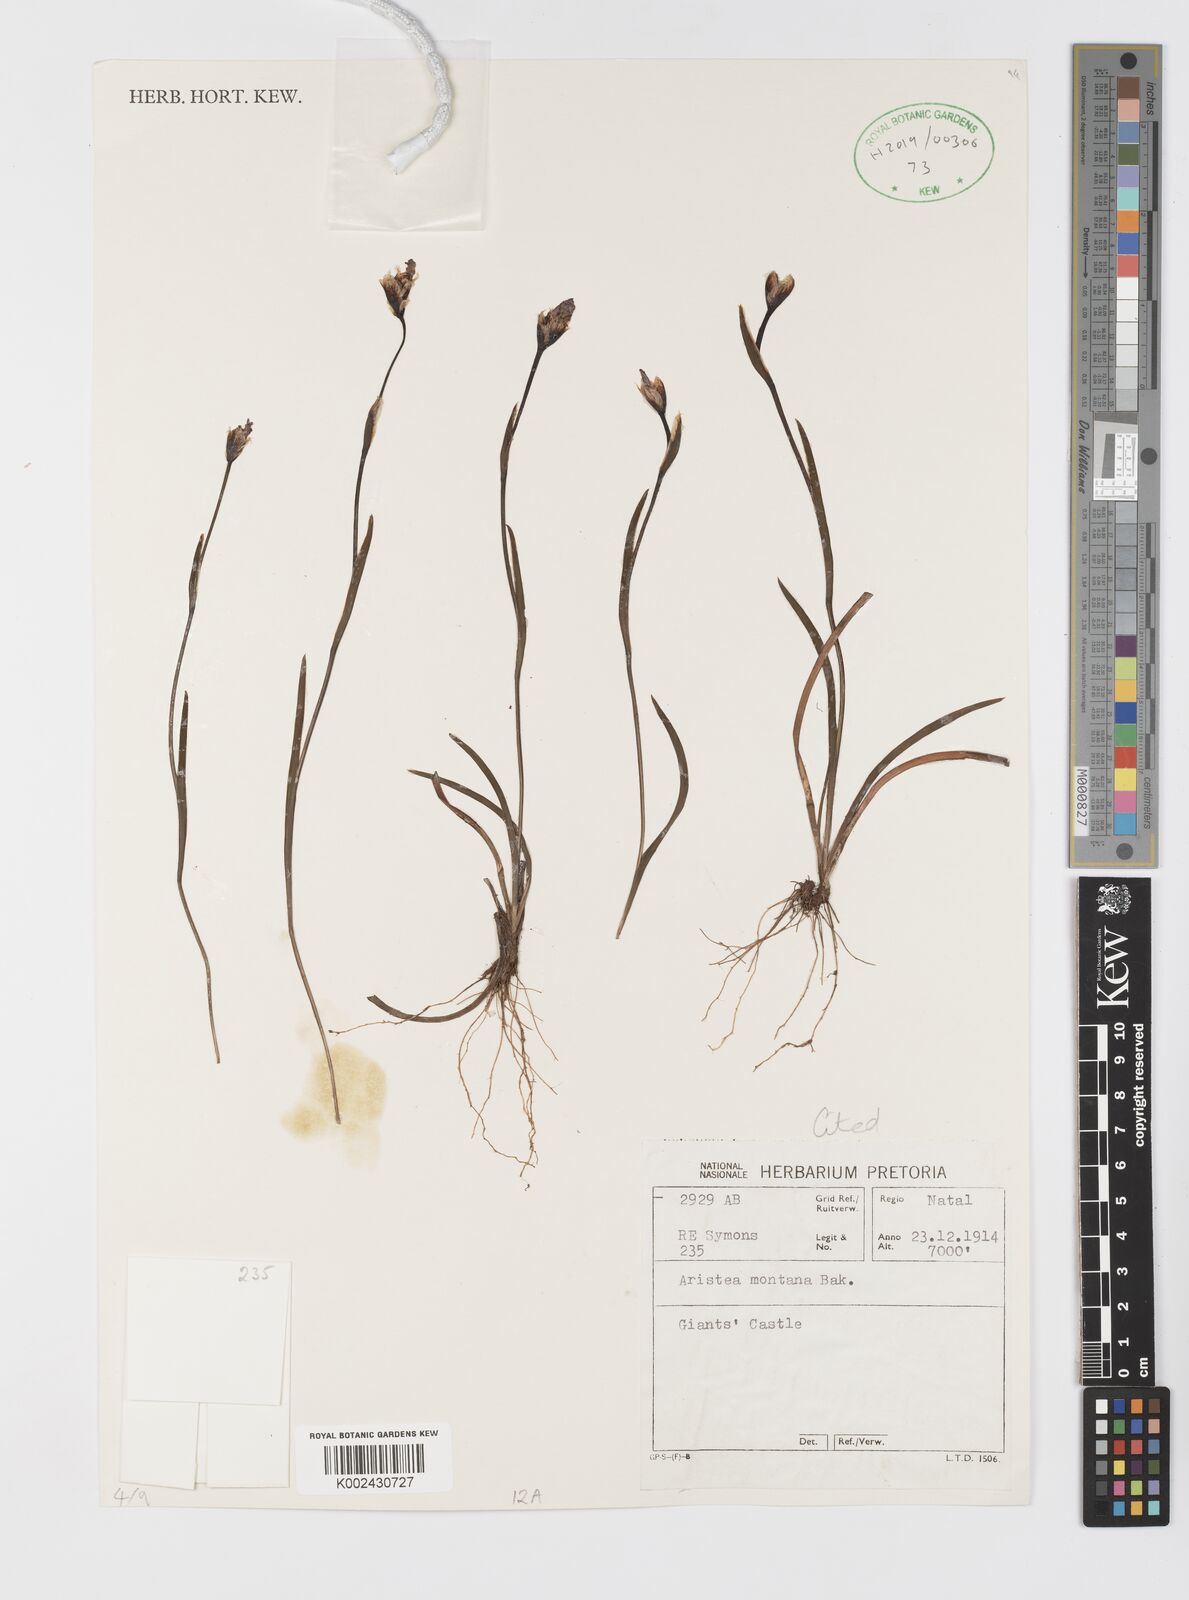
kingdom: Plantae
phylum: Tracheophyta
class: Liliopsida
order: Asparagales
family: Iridaceae
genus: Aristea
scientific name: Aristea montana
